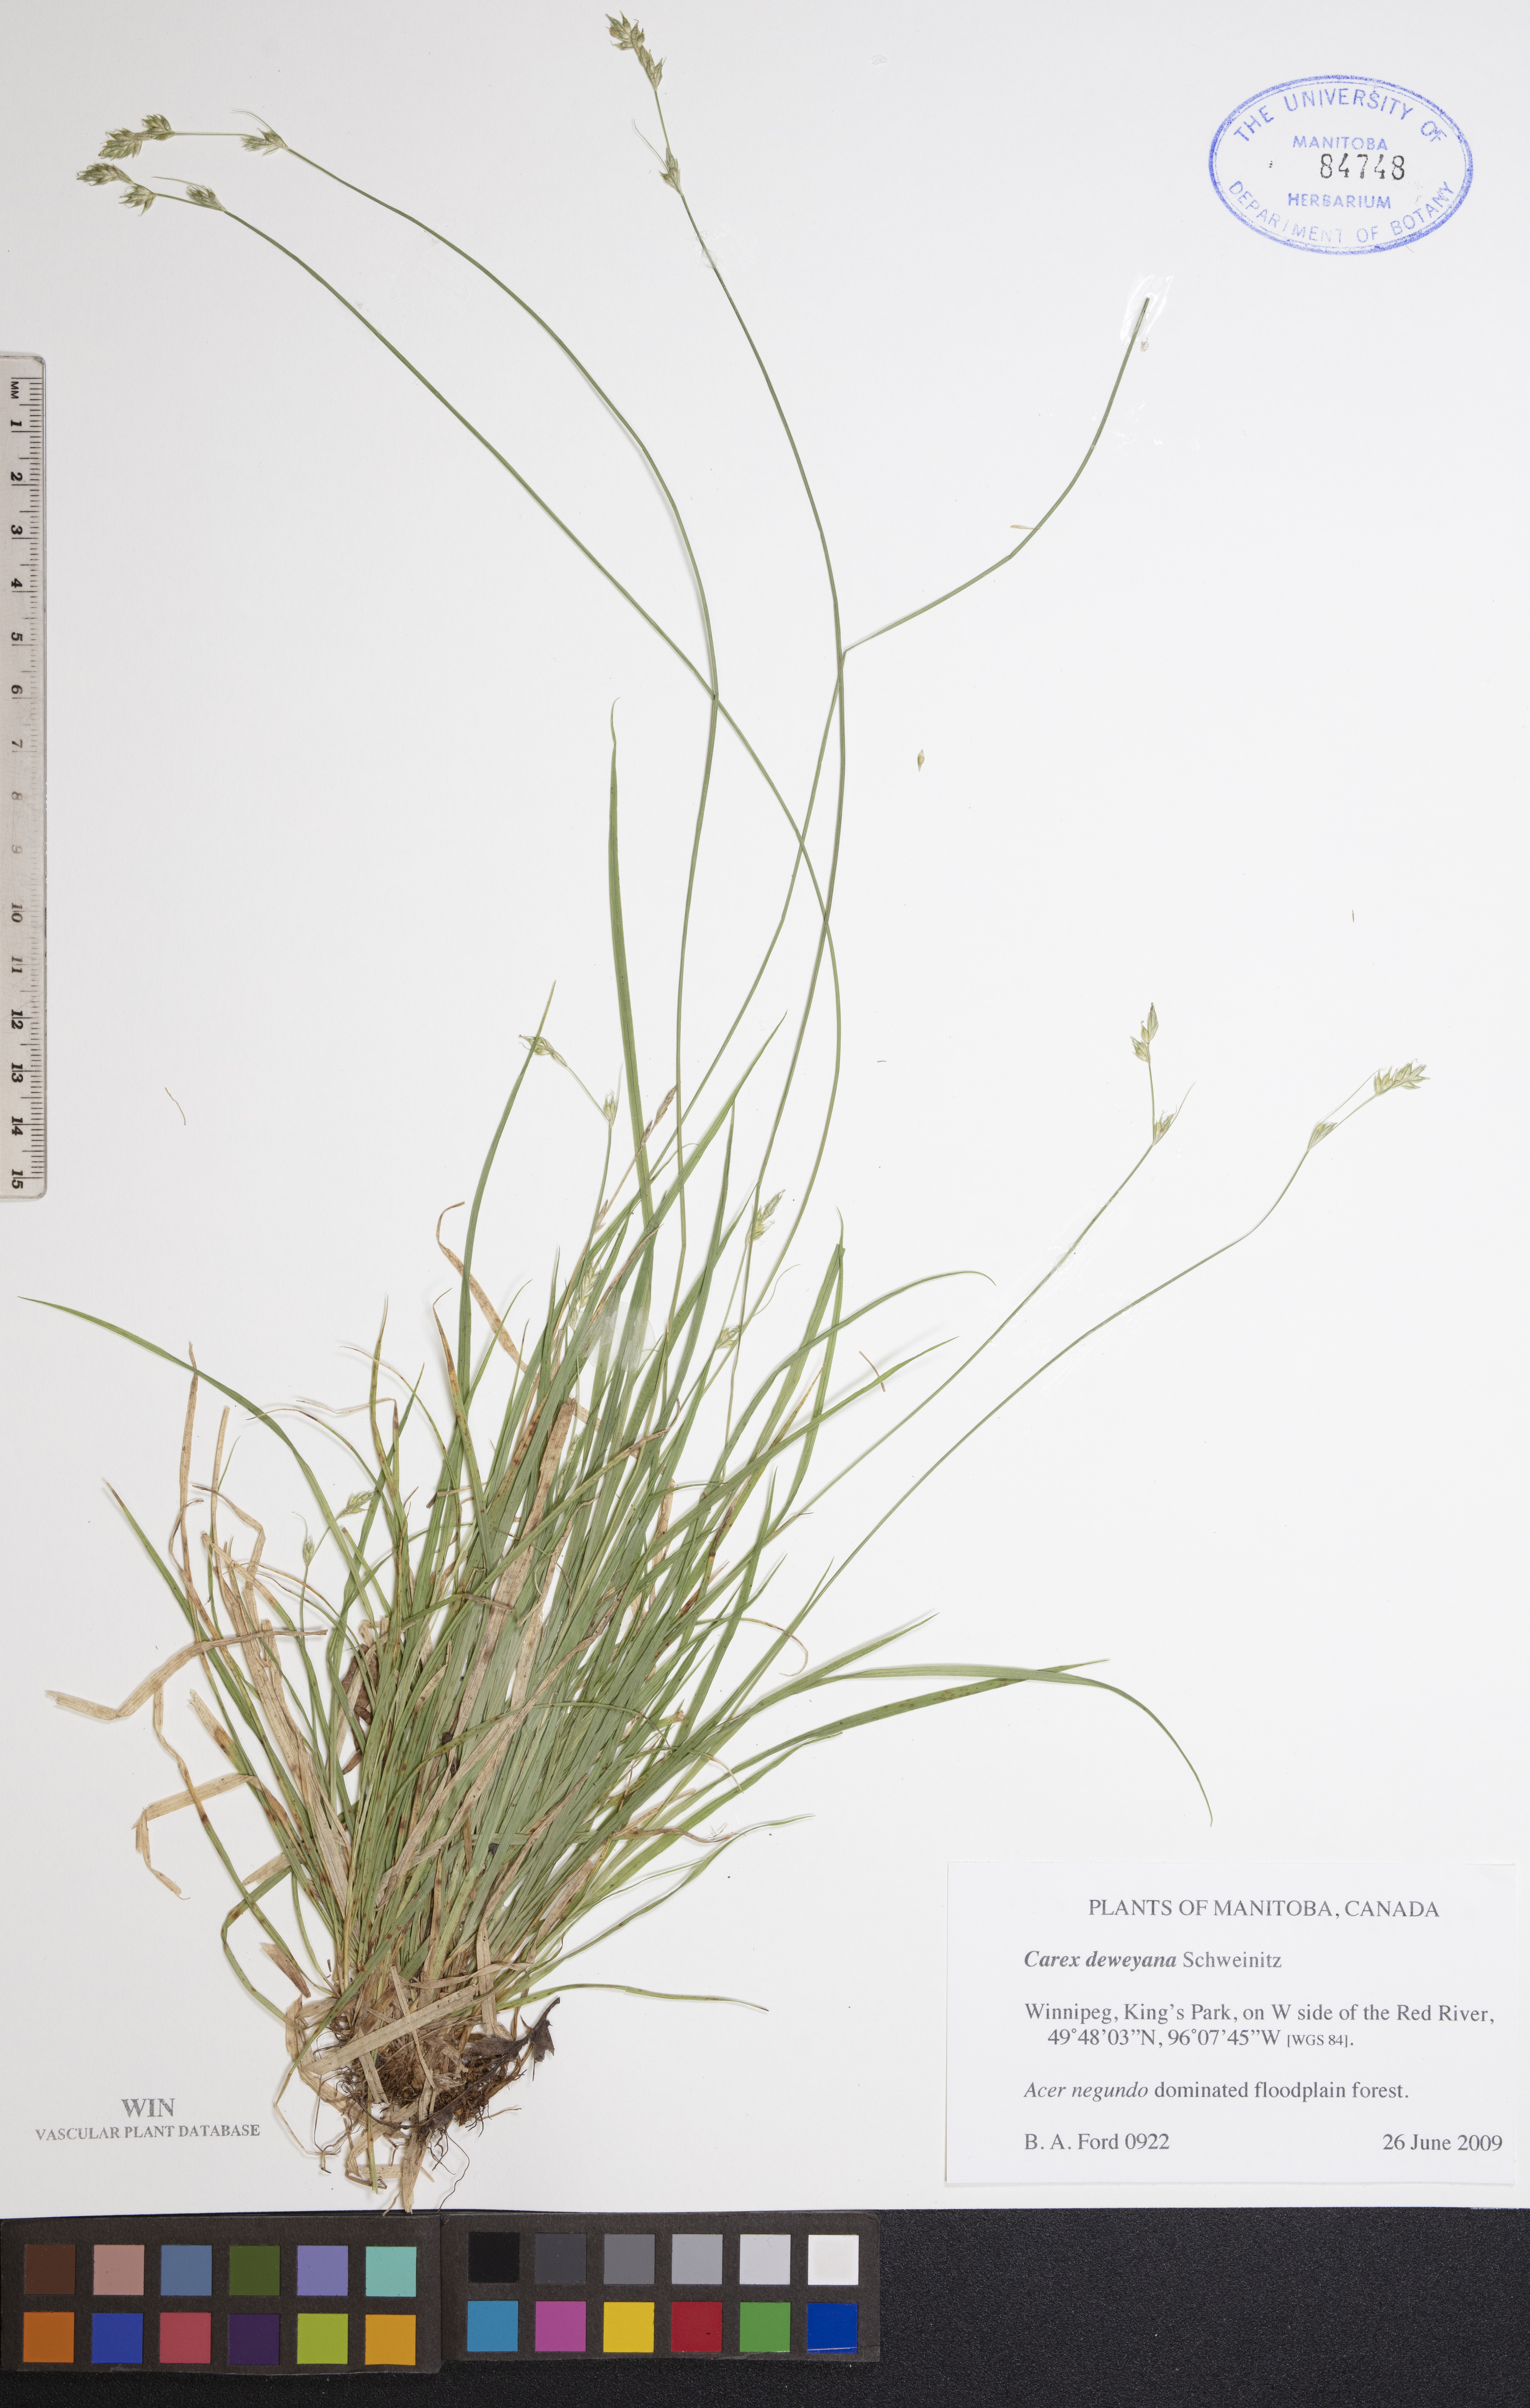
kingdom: Plantae
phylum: Tracheophyta
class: Liliopsida
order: Poales
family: Cyperaceae
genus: Carex
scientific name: Carex deweyana
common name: Dewey's sedge
